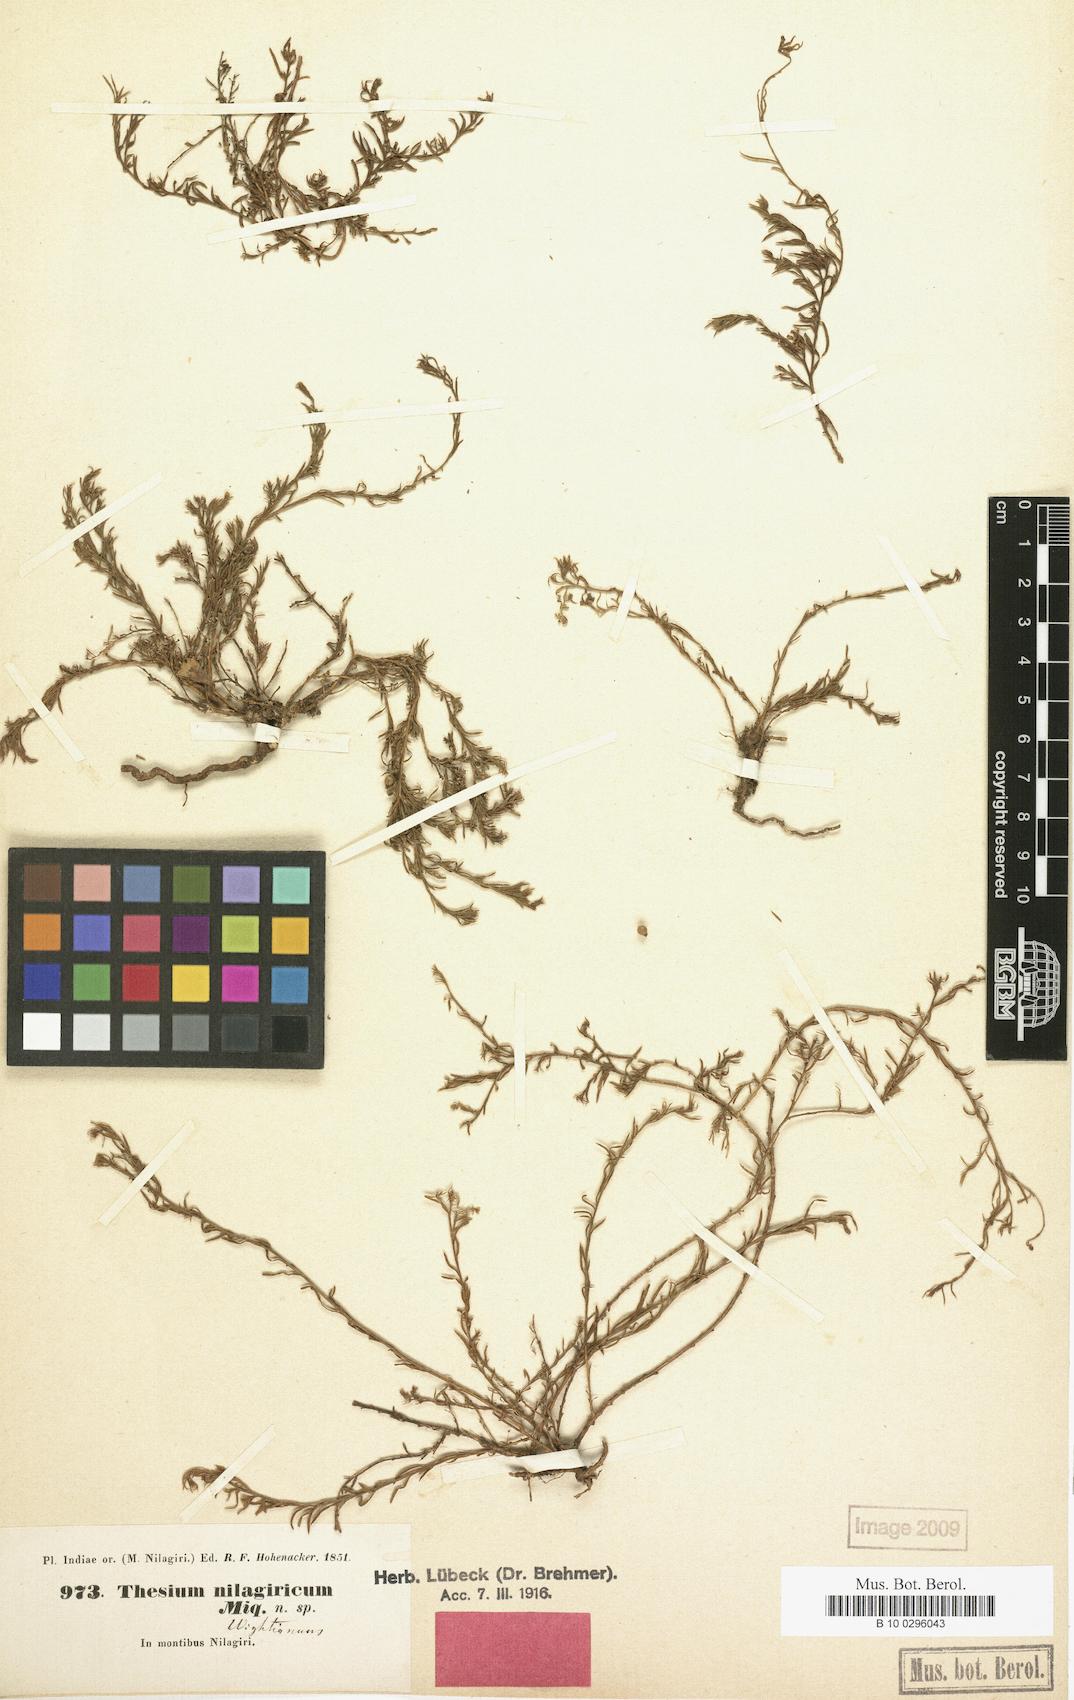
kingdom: Plantae
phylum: Tracheophyta
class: Magnoliopsida
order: Santalales
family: Thesiaceae
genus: Thesium
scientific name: Thesium wightianum
